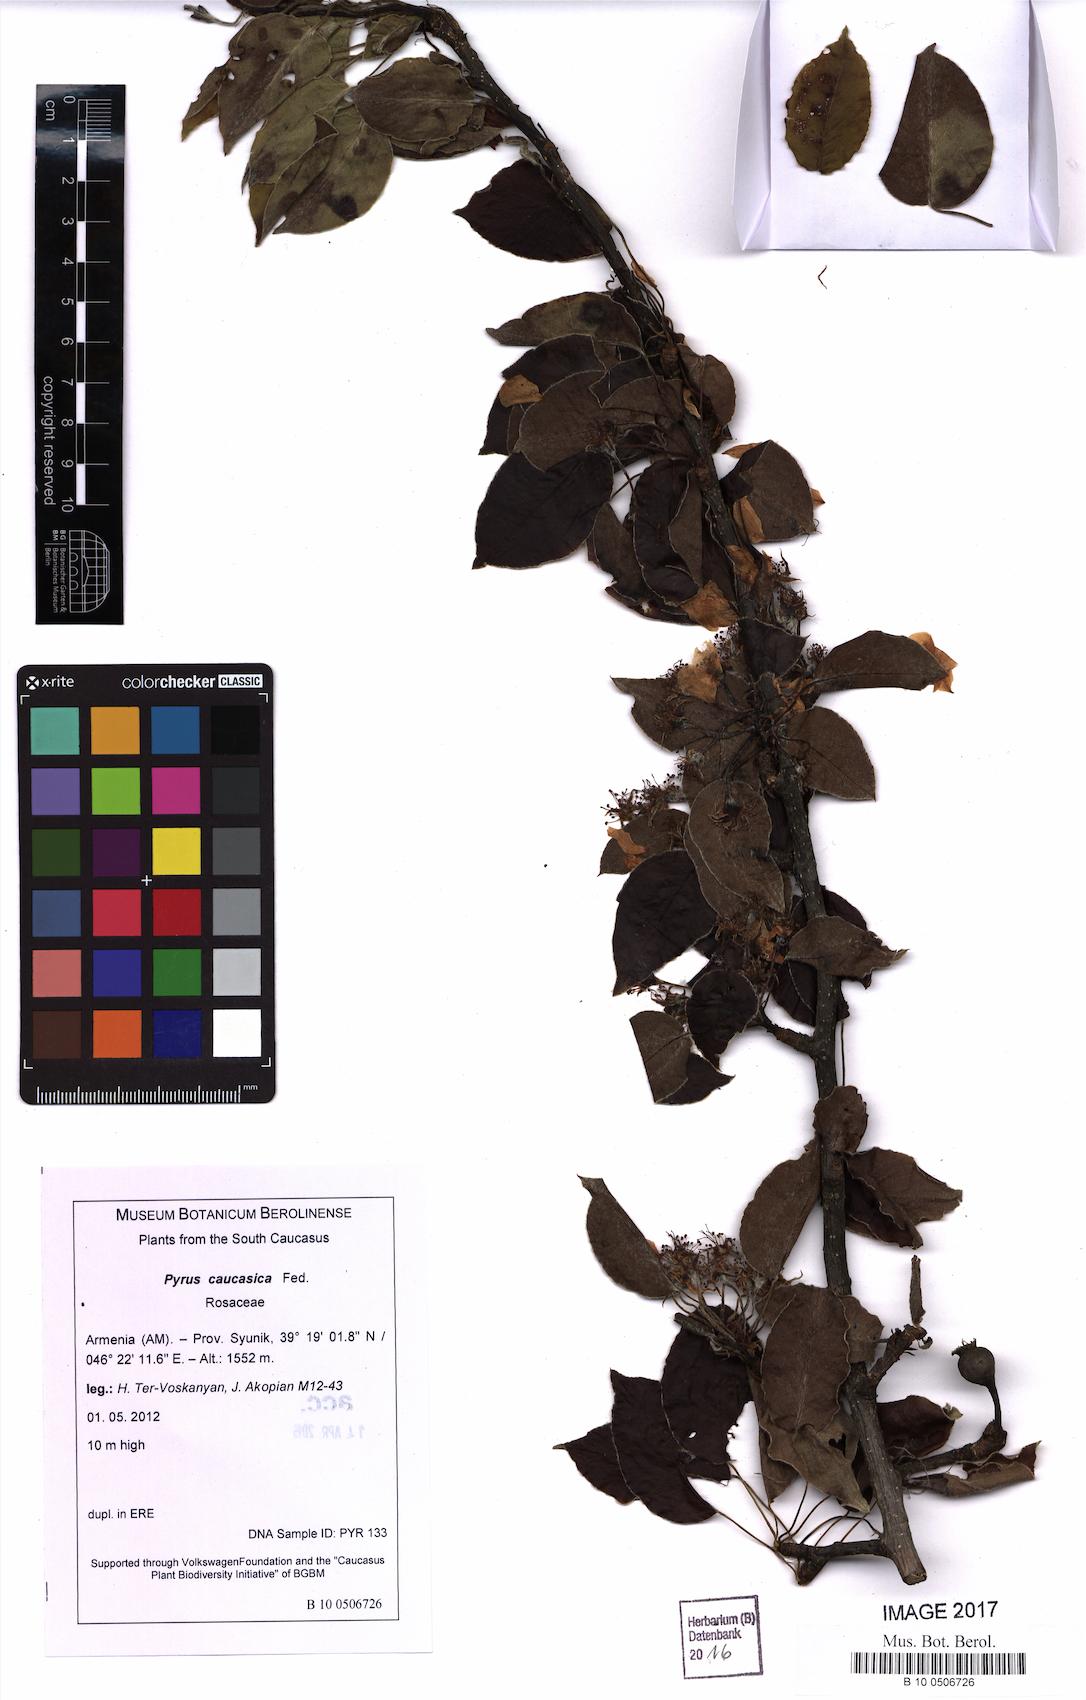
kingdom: Plantae
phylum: Tracheophyta
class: Magnoliopsida
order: Rosales
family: Rosaceae
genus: Pyrus
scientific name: Pyrus communis
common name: Pear
